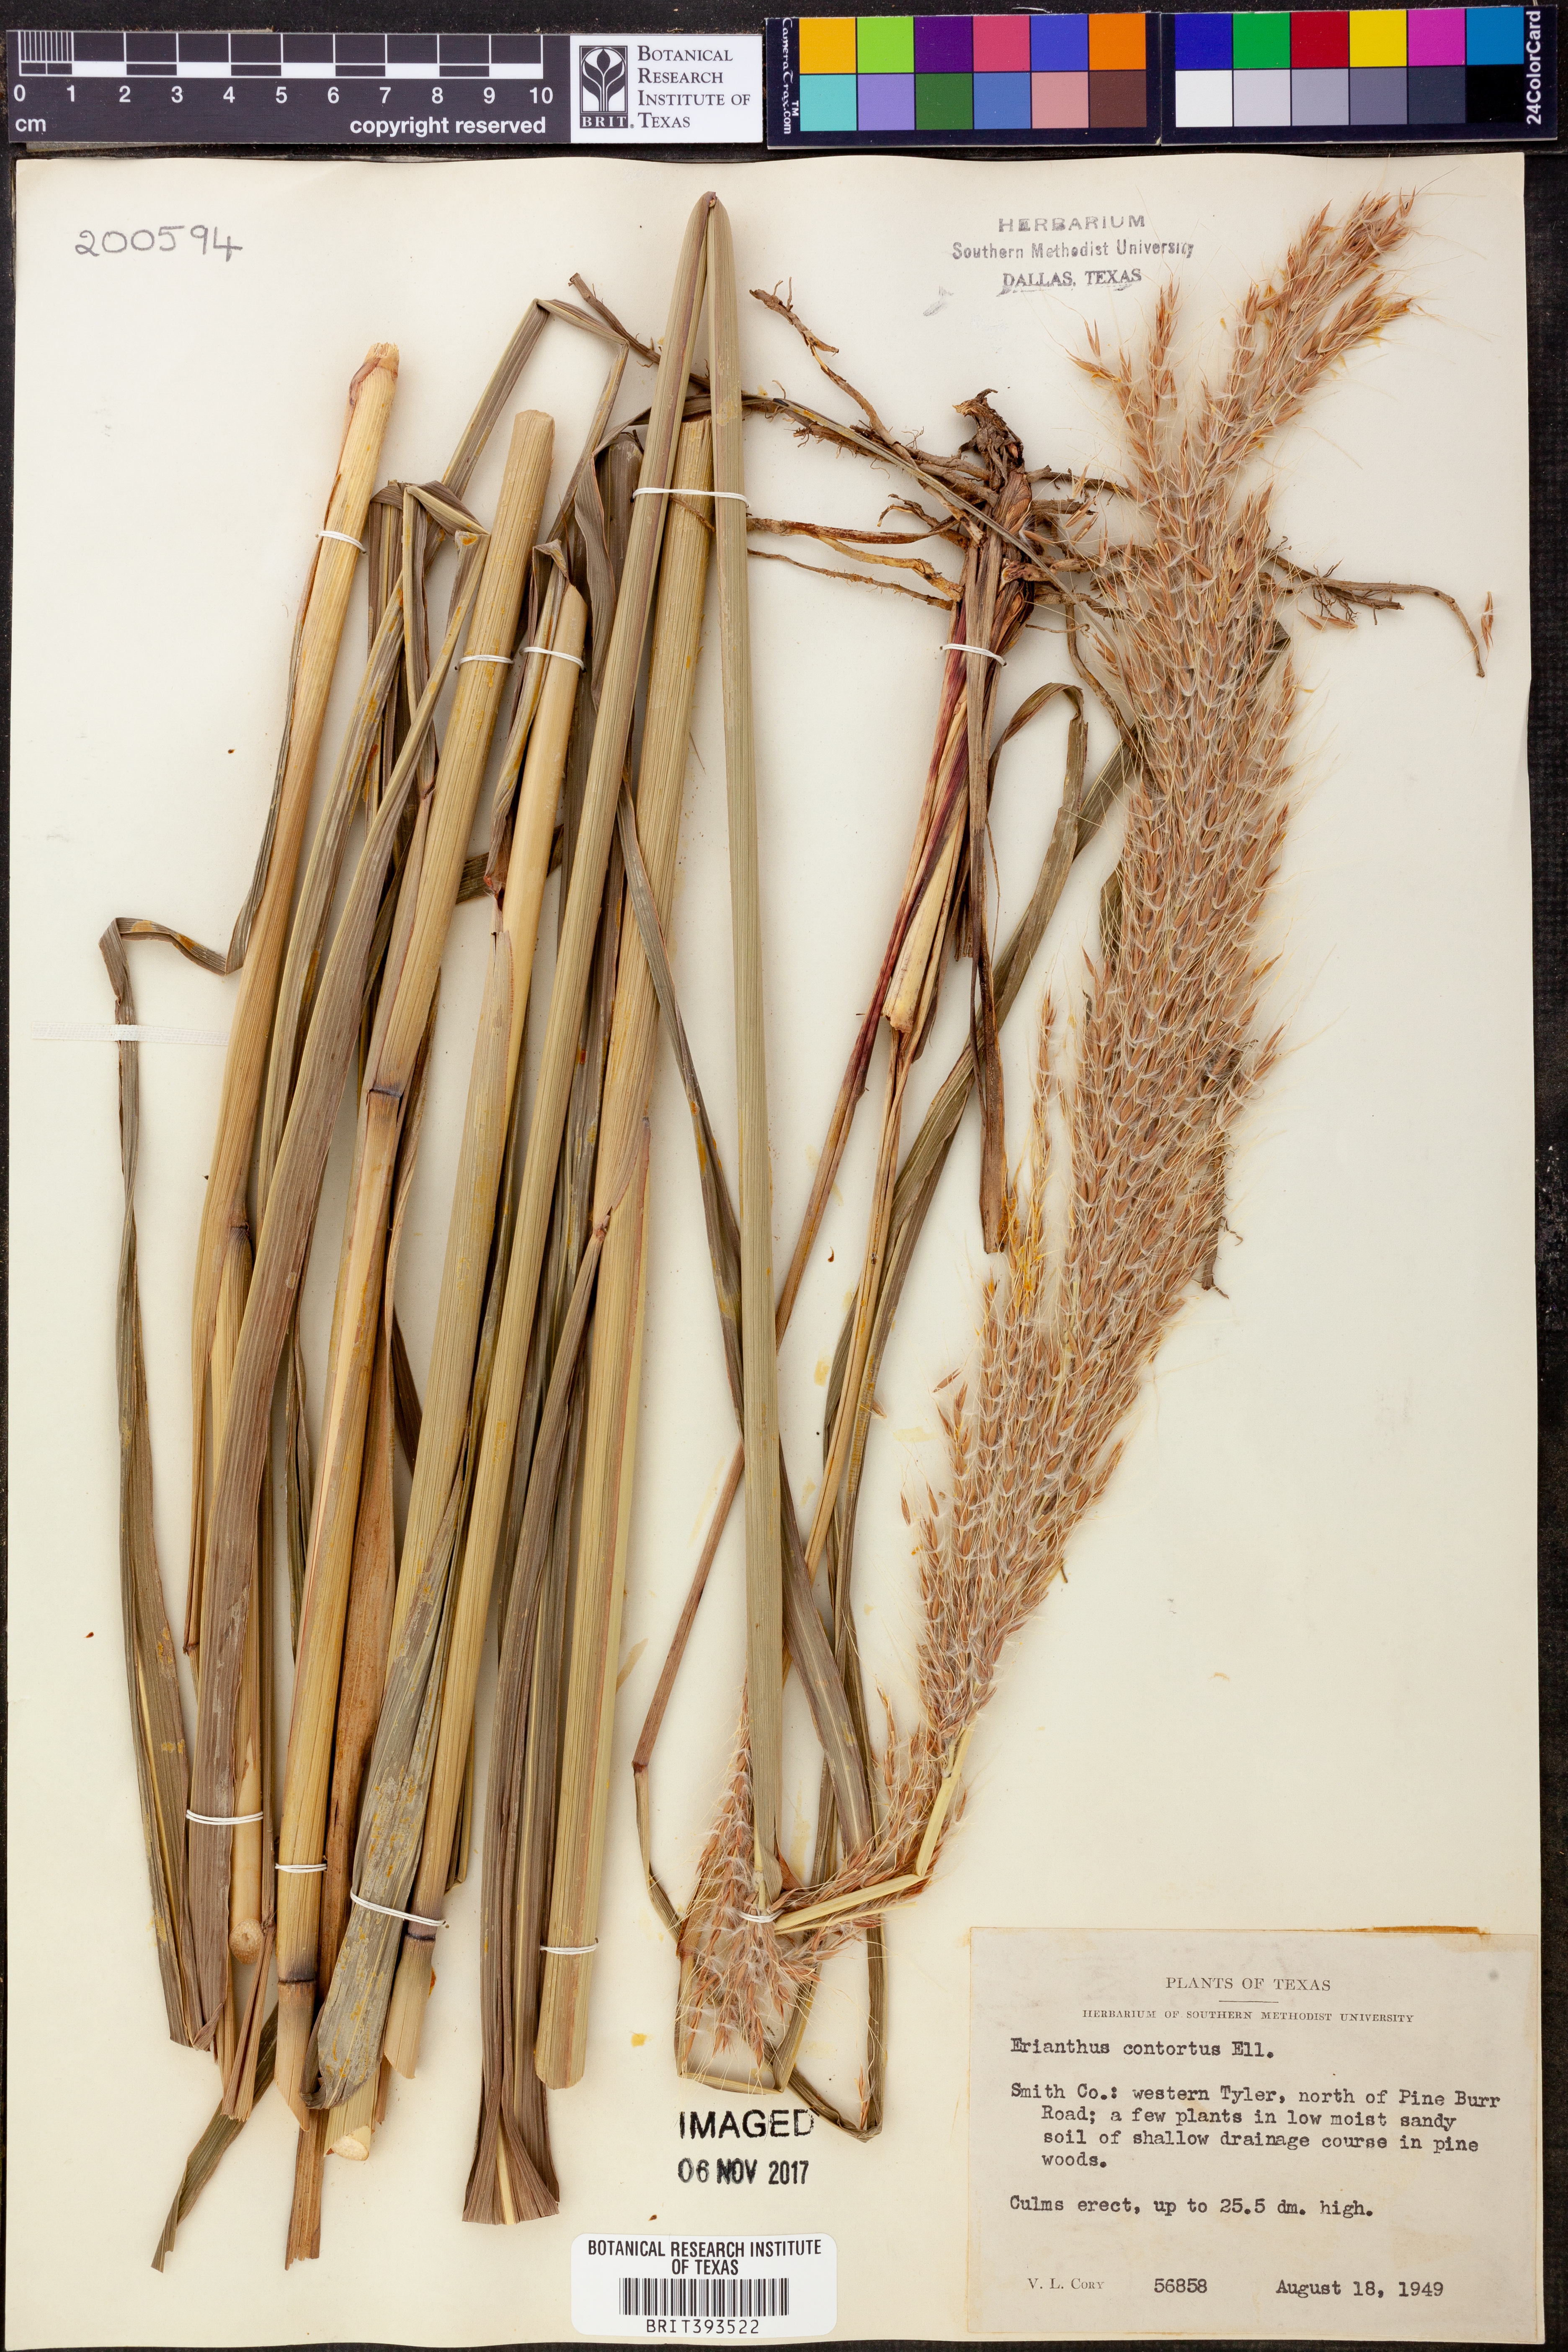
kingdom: Plantae
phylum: Tracheophyta
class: Liliopsida
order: Poales
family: Poaceae
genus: Erianthus
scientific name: Erianthus contortus
